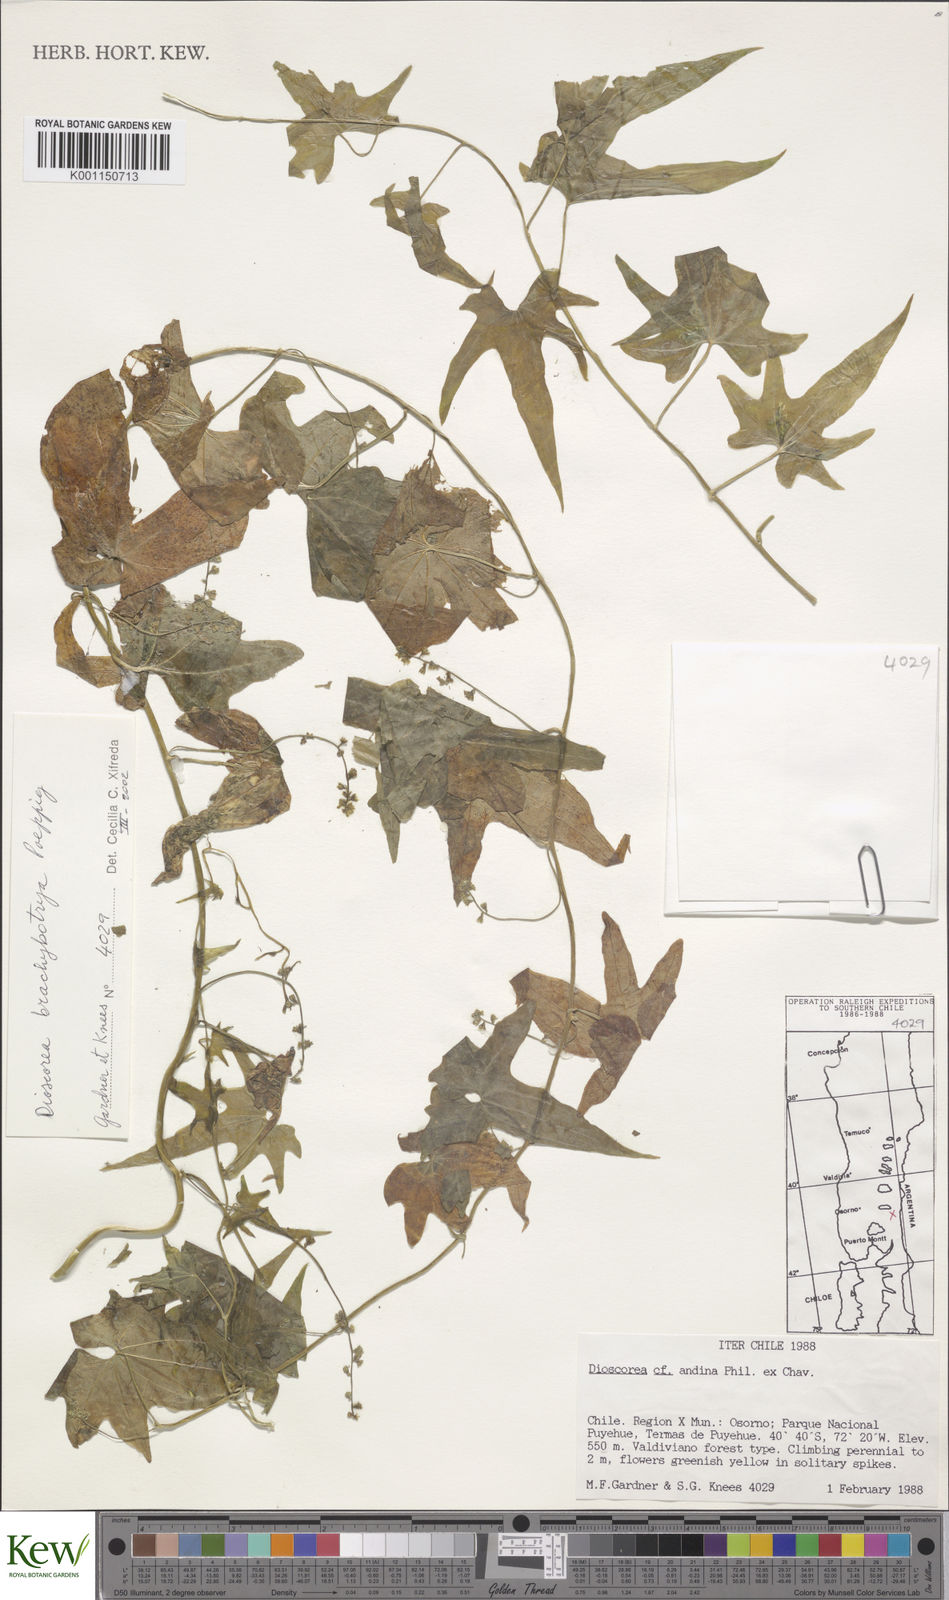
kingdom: Plantae
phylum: Tracheophyta
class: Liliopsida
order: Dioscoreales
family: Dioscoreaceae
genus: Dioscorea
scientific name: Dioscorea andina
